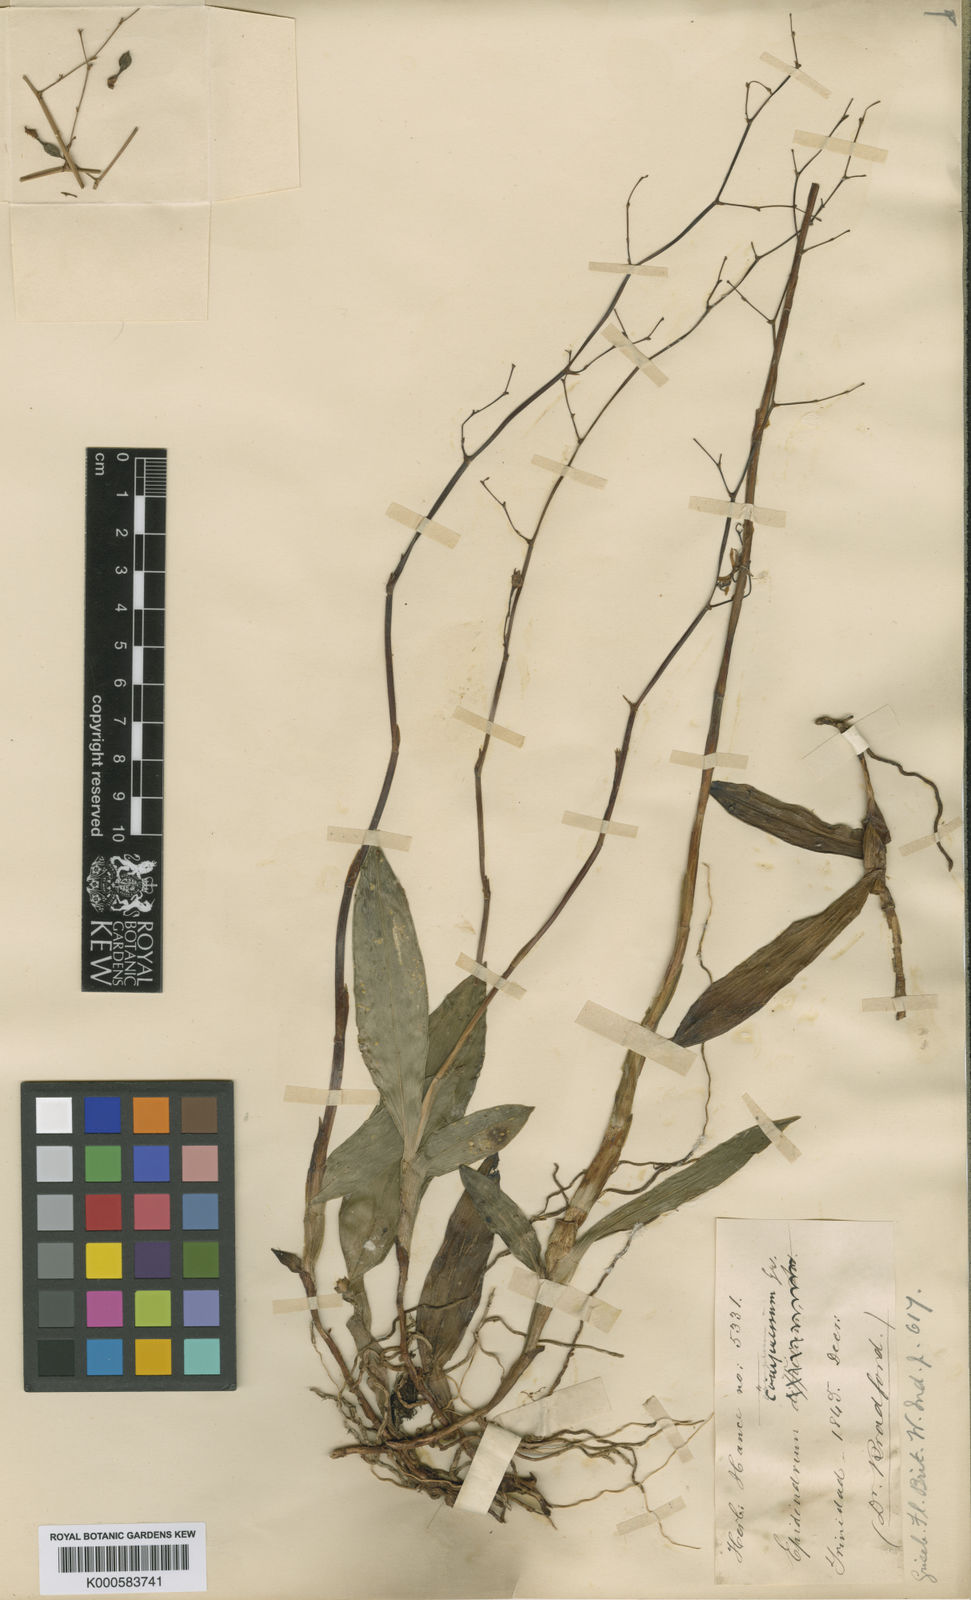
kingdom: Plantae
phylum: Tracheophyta
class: Liliopsida
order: Asparagales
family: Orchidaceae
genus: Epidendrum
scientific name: Epidendrum compressum
